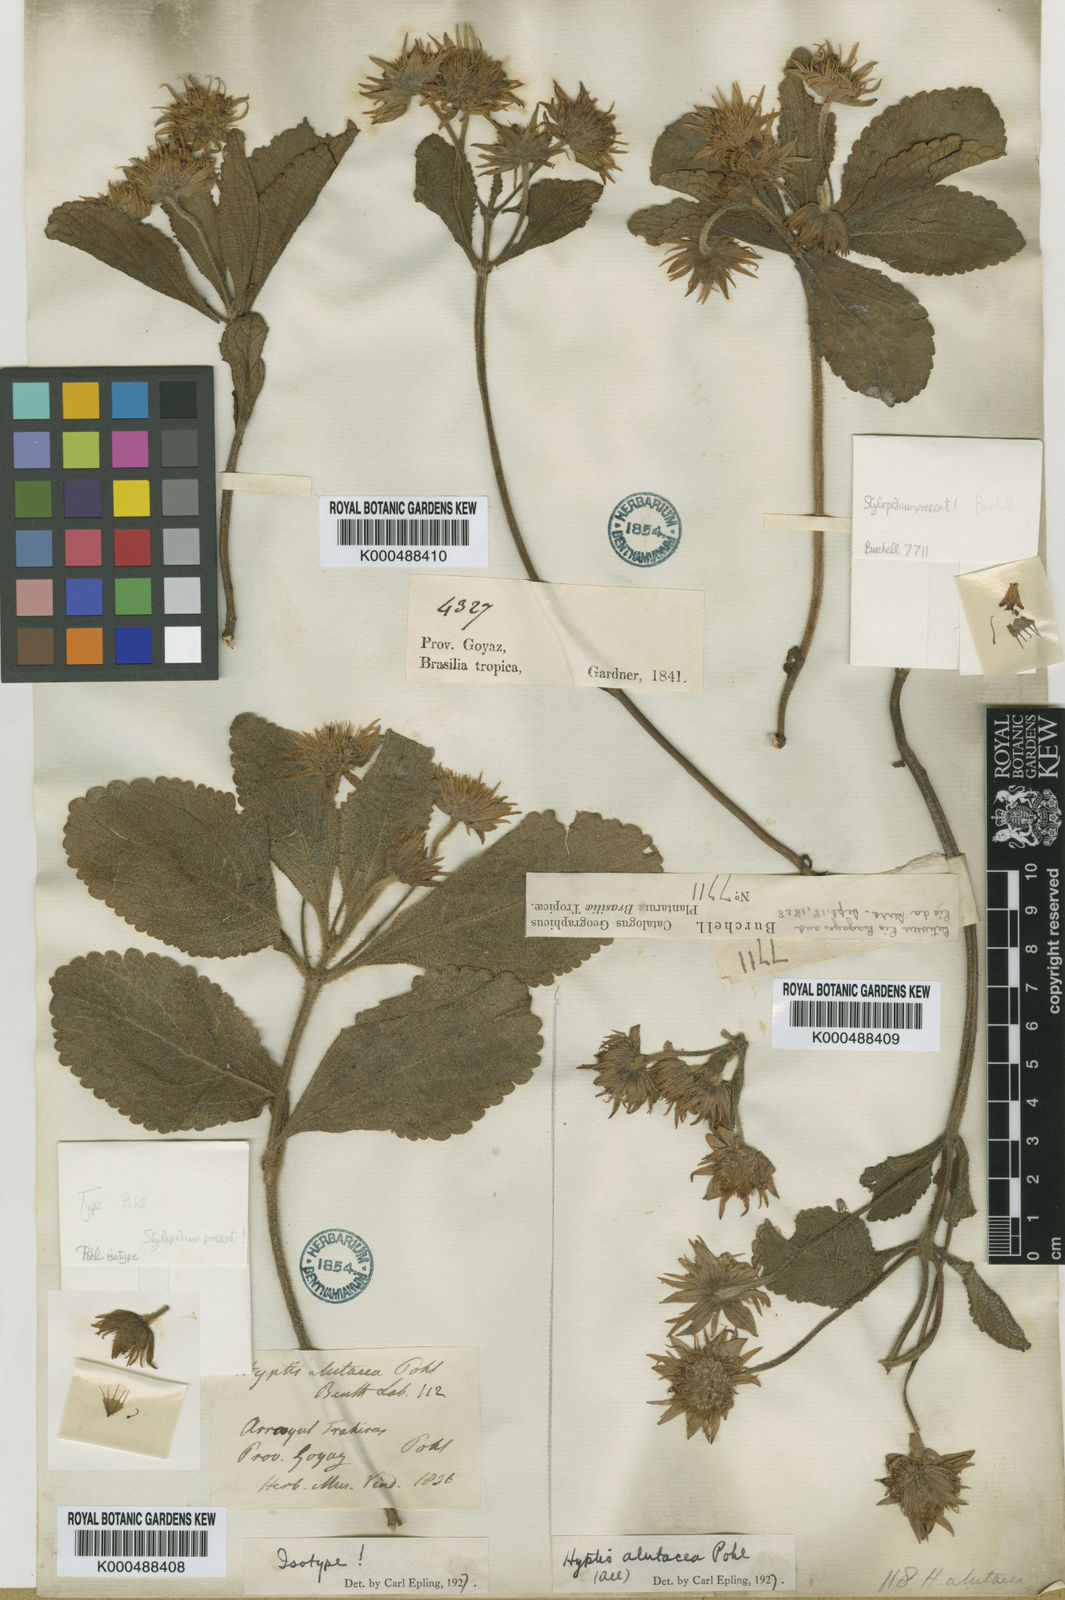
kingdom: Plantae
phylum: Tracheophyta
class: Magnoliopsida
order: Lamiales
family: Lamiaceae
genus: Hyptis
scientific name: Hyptis alutacea
